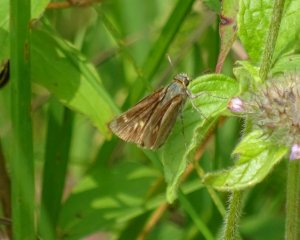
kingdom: Animalia
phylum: Arthropoda
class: Insecta
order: Lepidoptera
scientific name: Lepidoptera
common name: Butterflies
